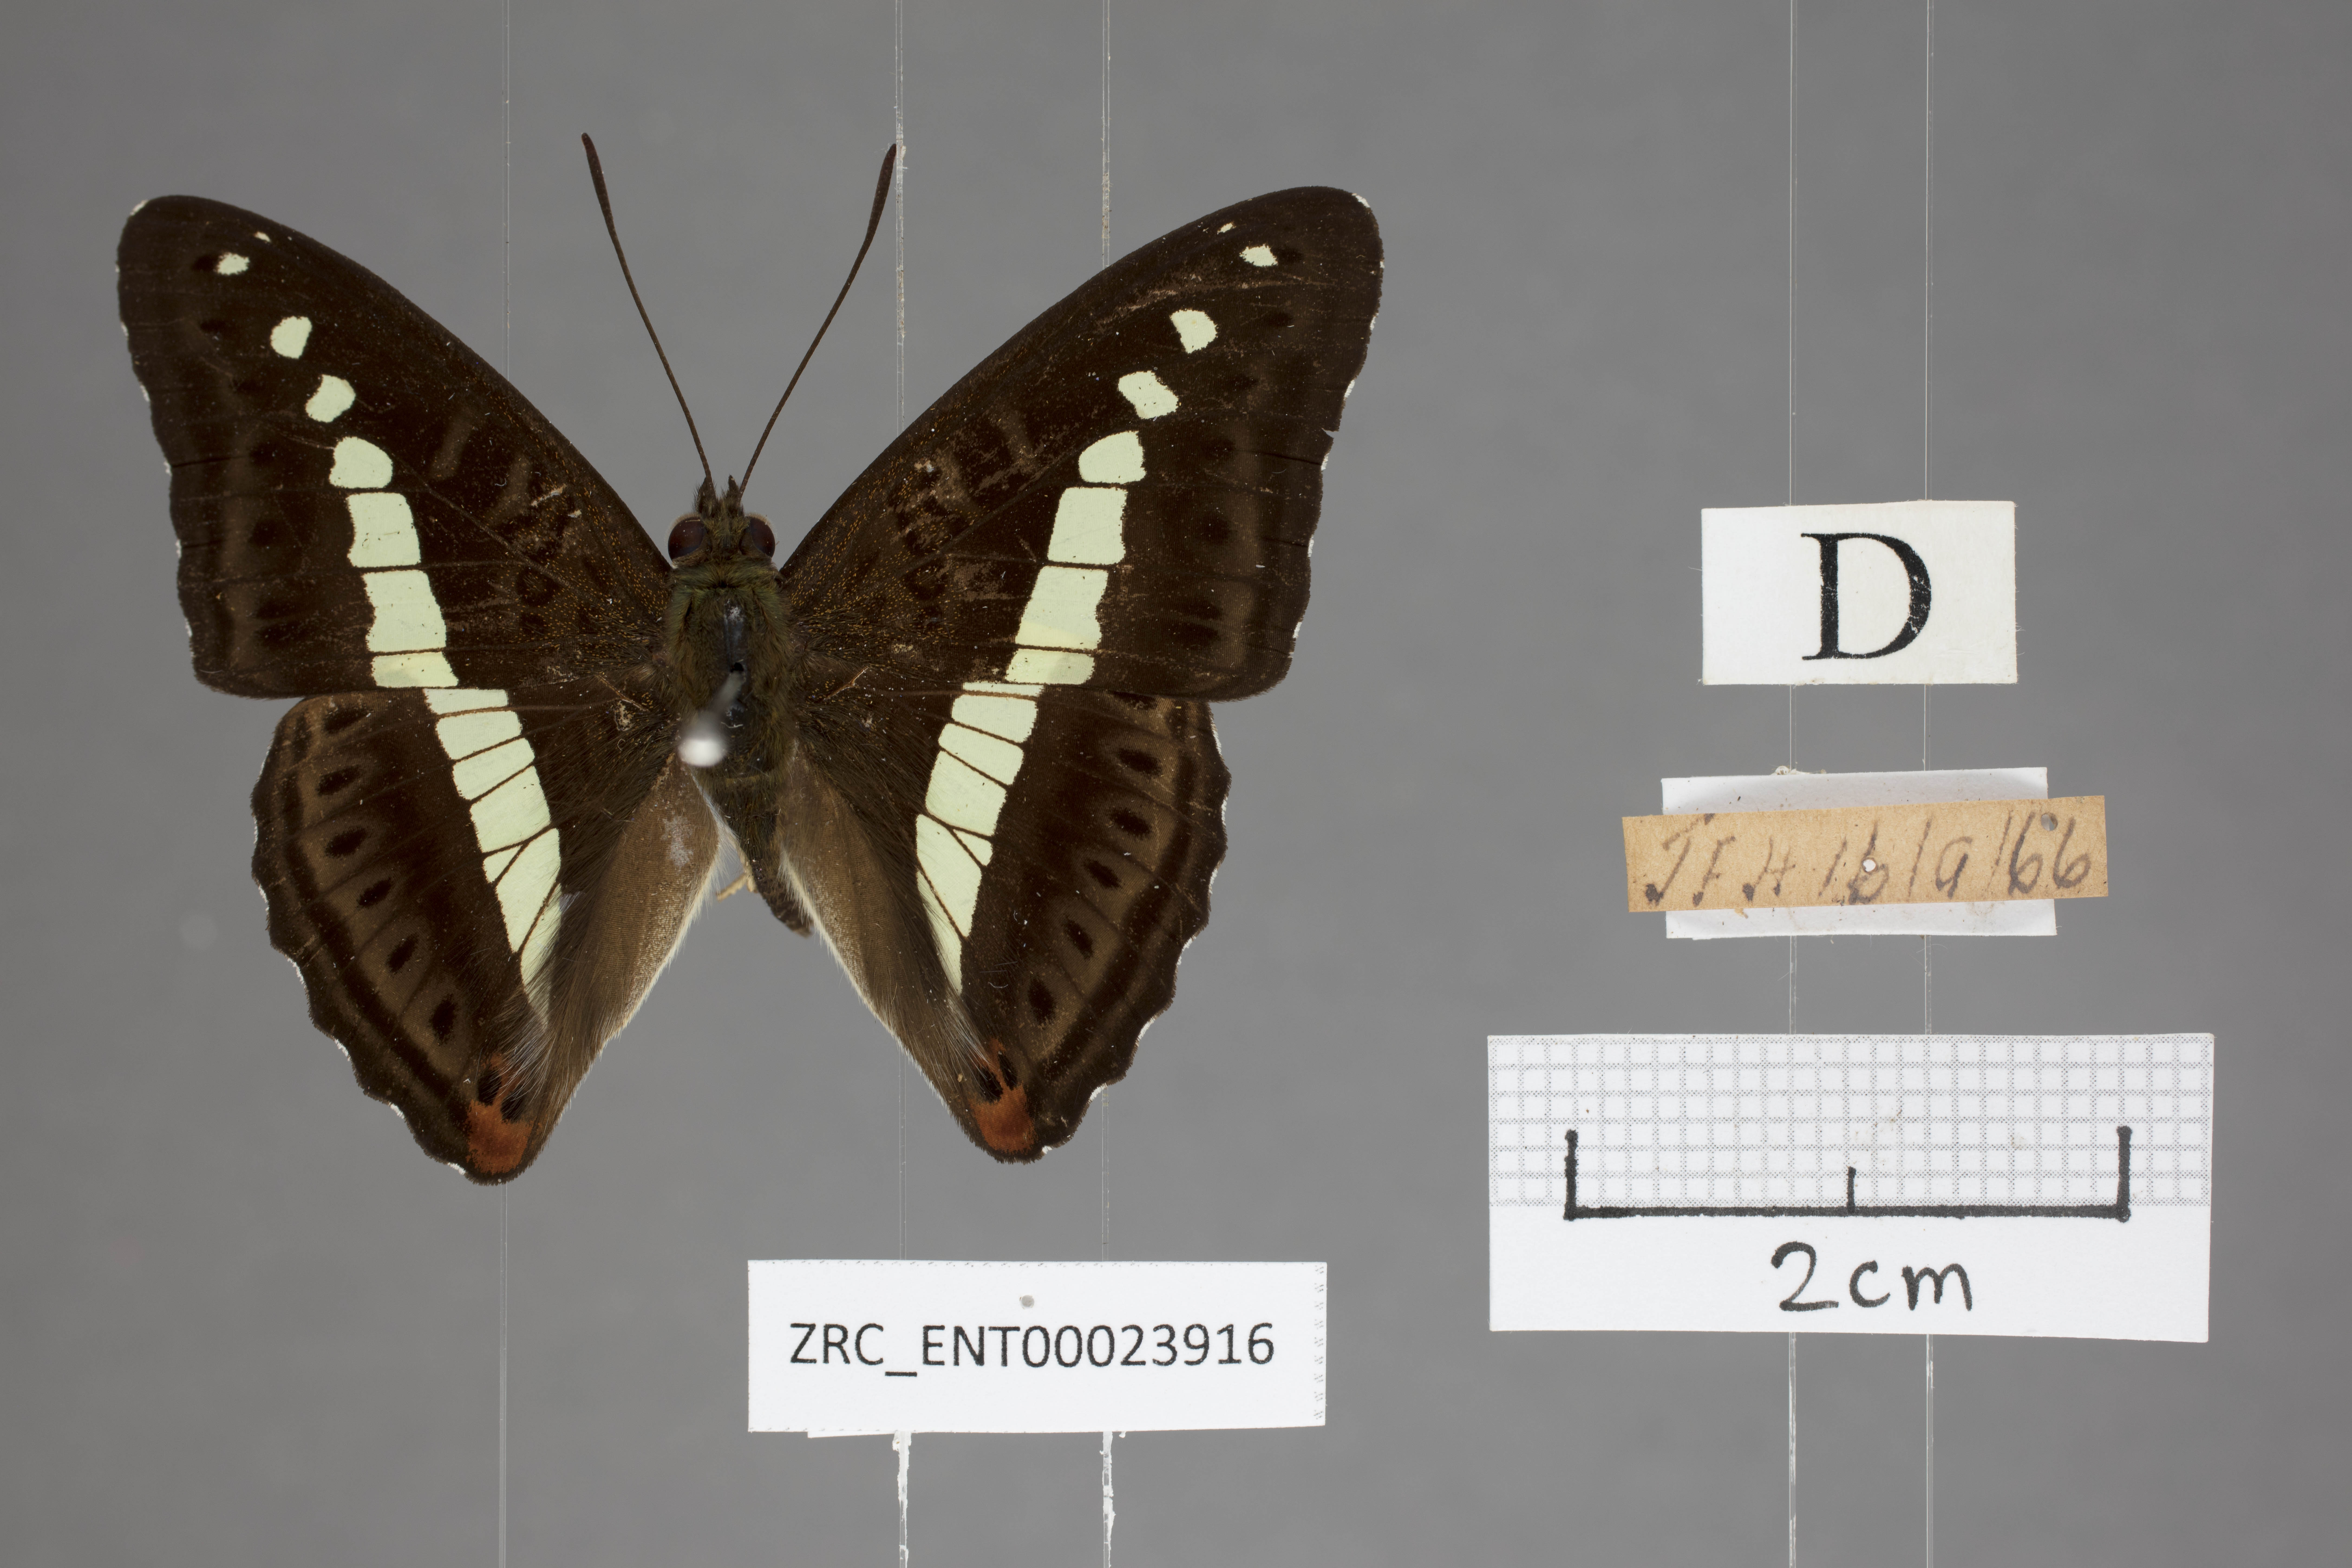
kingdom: Animalia
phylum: Arthropoda
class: Insecta
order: Lepidoptera
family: Nymphalidae
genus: Limenitis
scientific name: Limenitis Sumalia daraxa
